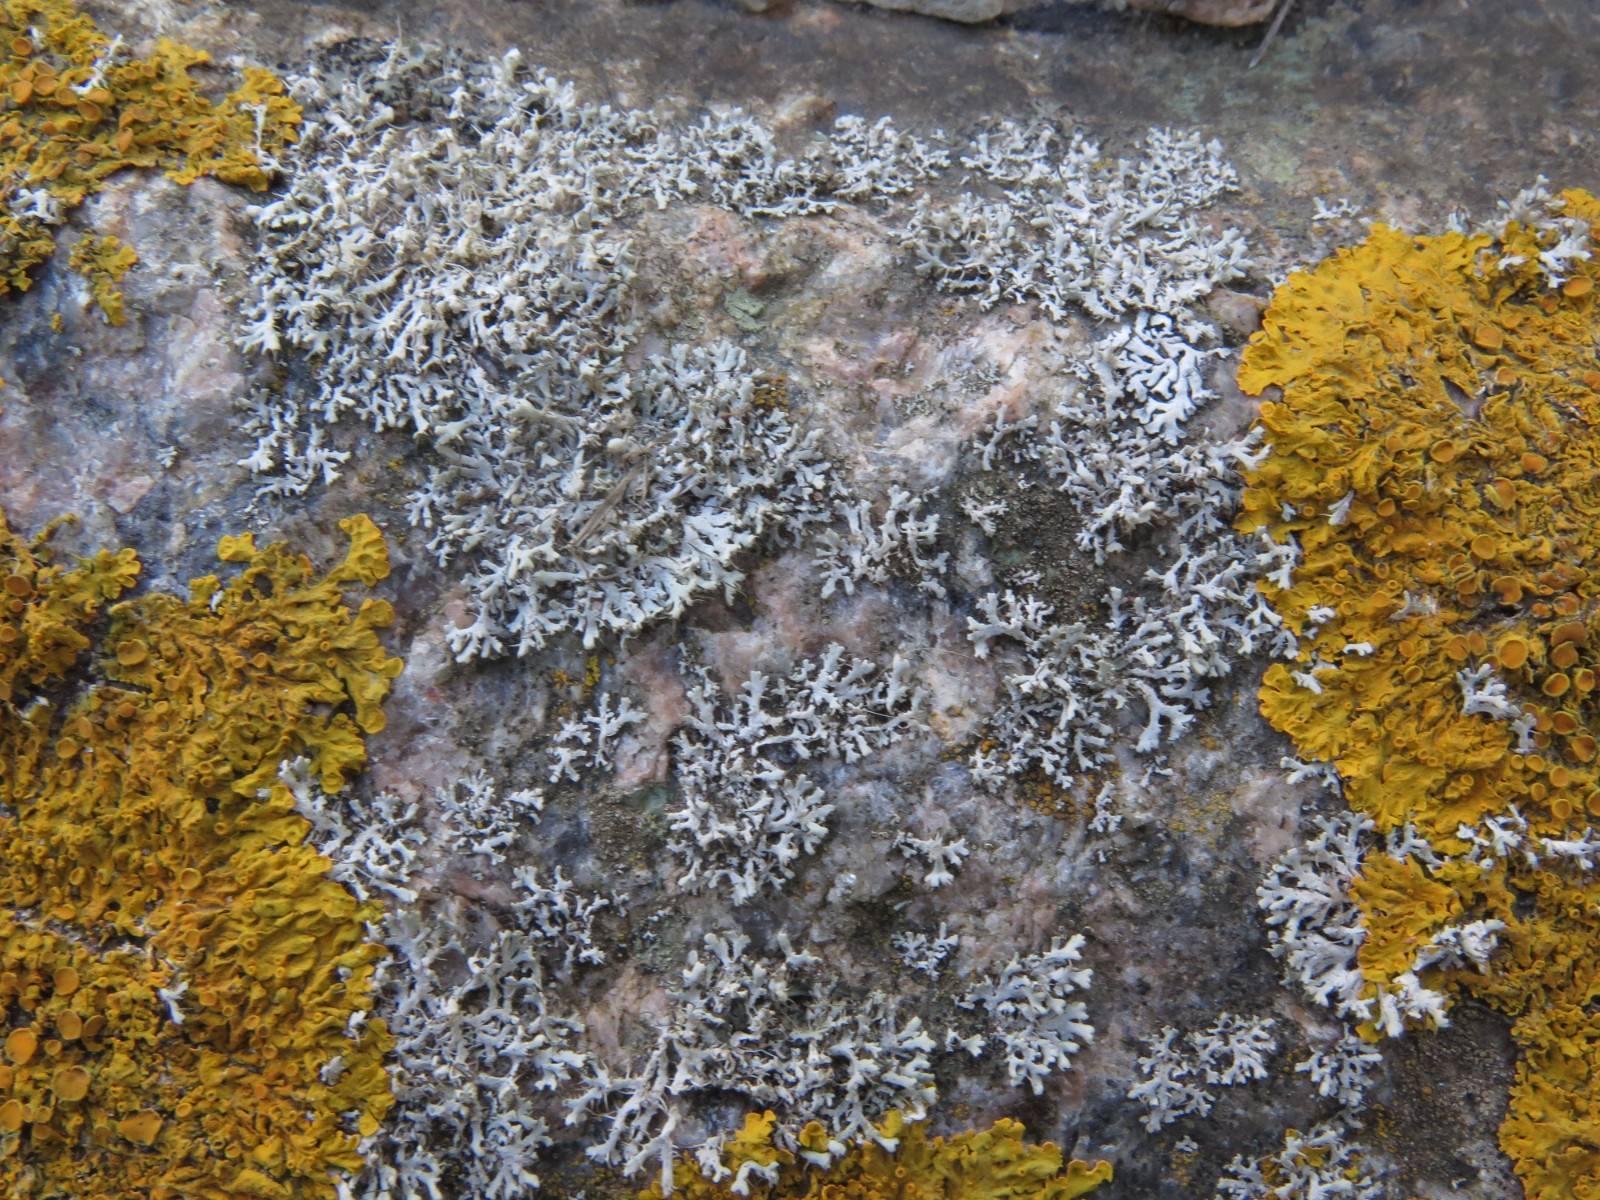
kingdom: Fungi
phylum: Ascomycota
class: Lecanoromycetes
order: Caliciales
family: Physciaceae
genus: Physcia
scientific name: Physcia tenella
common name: spæd rosetlav
